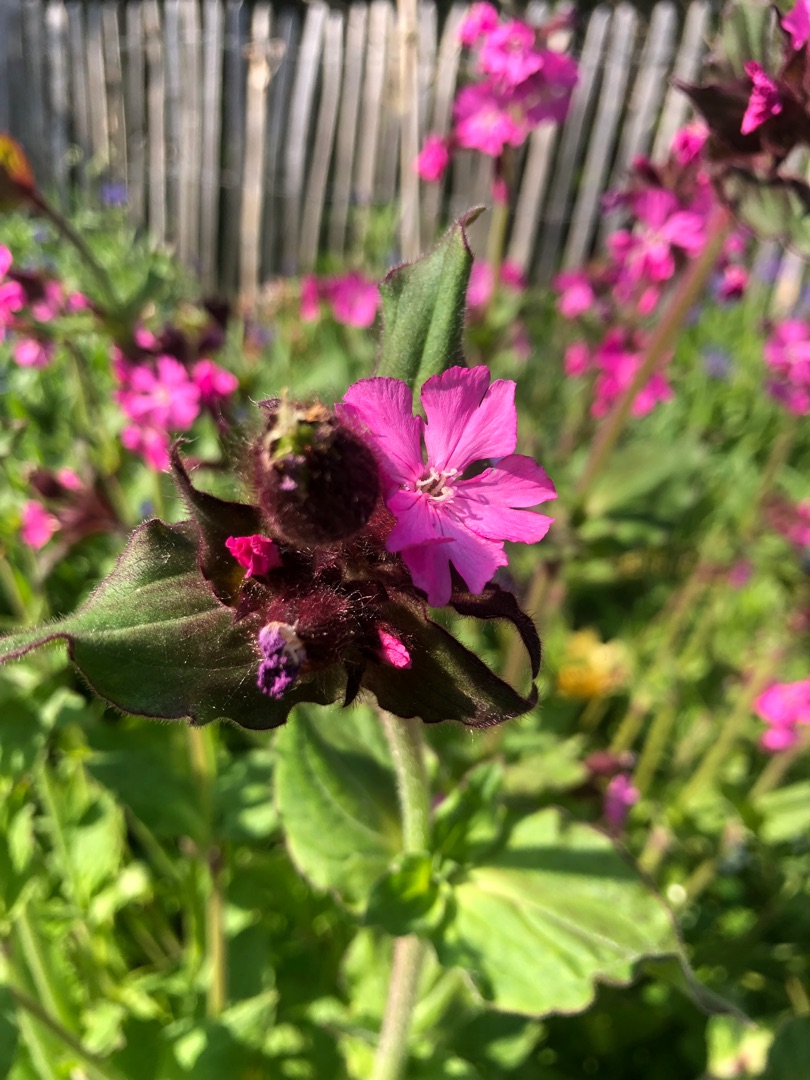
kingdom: Plantae
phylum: Tracheophyta
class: Magnoliopsida
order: Caryophyllales
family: Caryophyllaceae
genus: Silene
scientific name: Silene dioica
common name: Dagpragtstjerne
